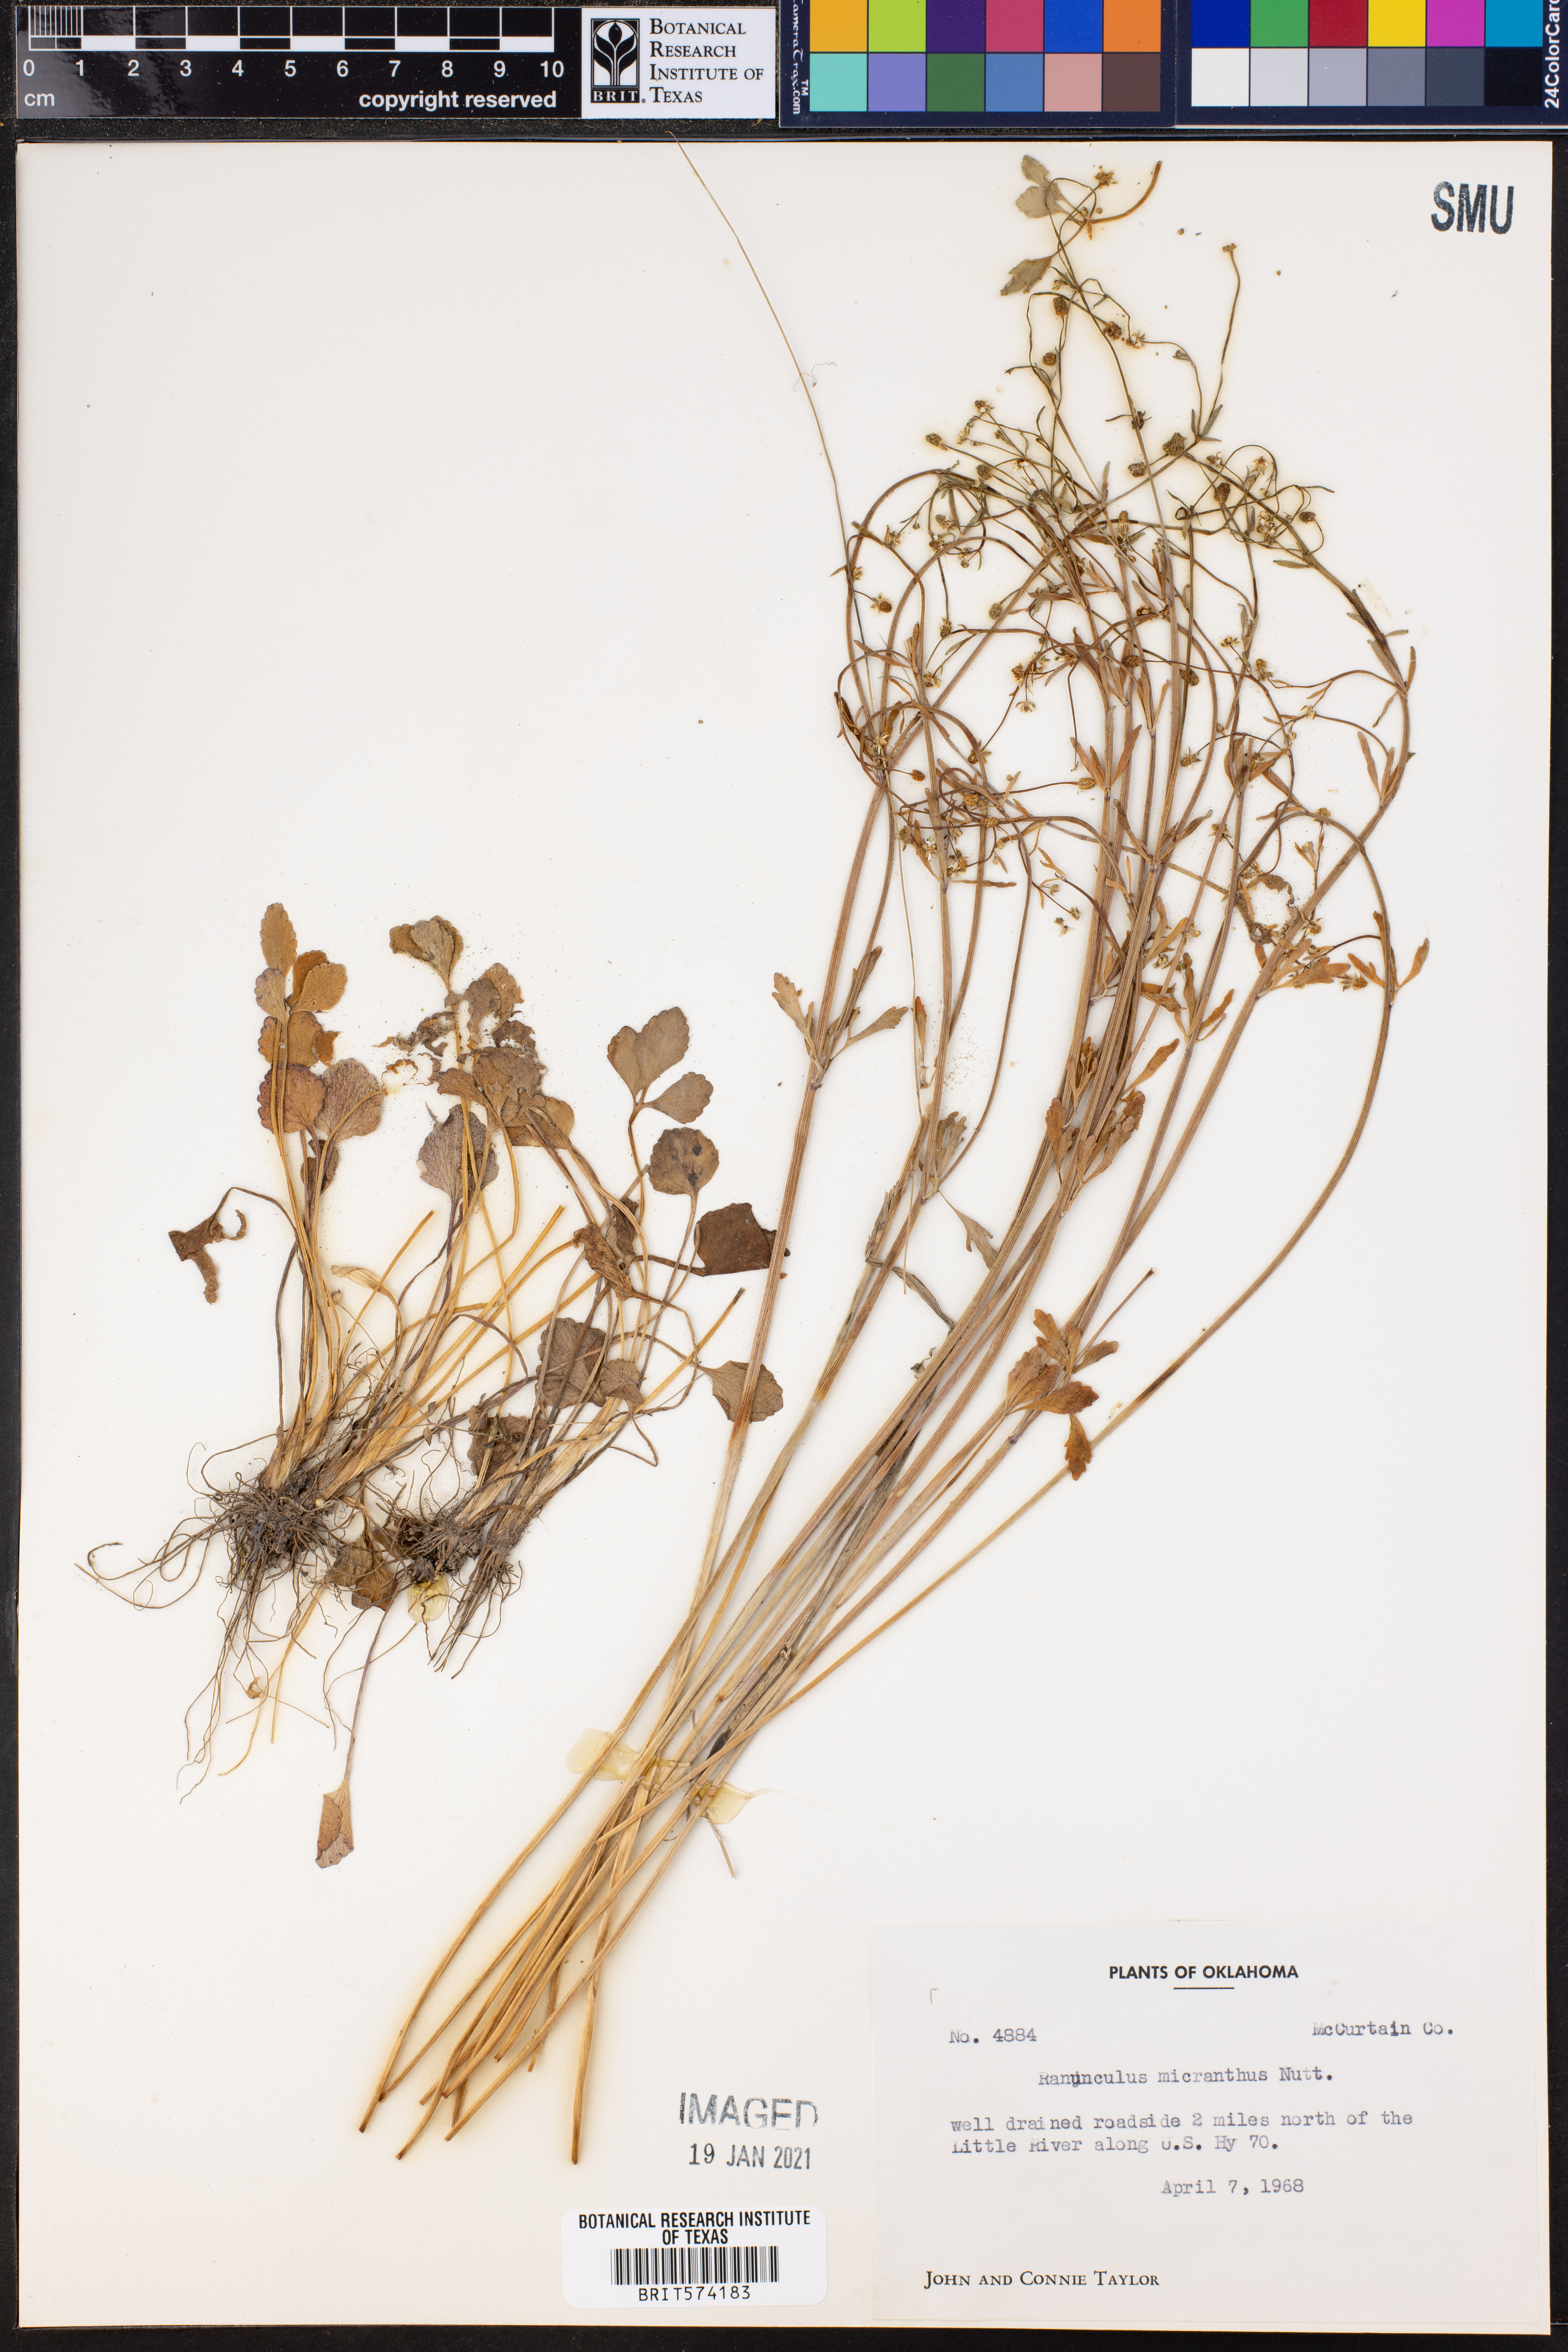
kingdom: Plantae
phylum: Tracheophyta
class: Magnoliopsida
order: Ranunculales
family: Ranunculaceae
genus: Ranunculus
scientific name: Ranunculus macranthus
